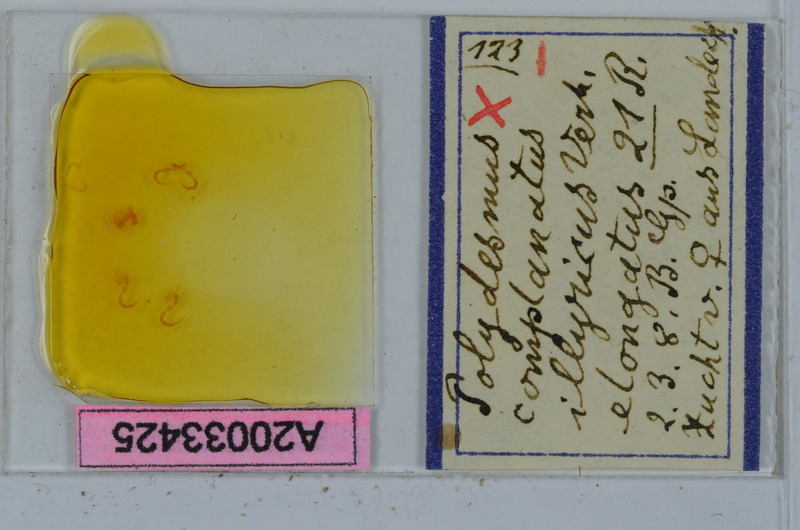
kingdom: Animalia
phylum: Arthropoda
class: Diplopoda
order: Polydesmida
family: Polydesmidae
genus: Polydesmus
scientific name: Polydesmus complanatus
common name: Flat-backed millipede
